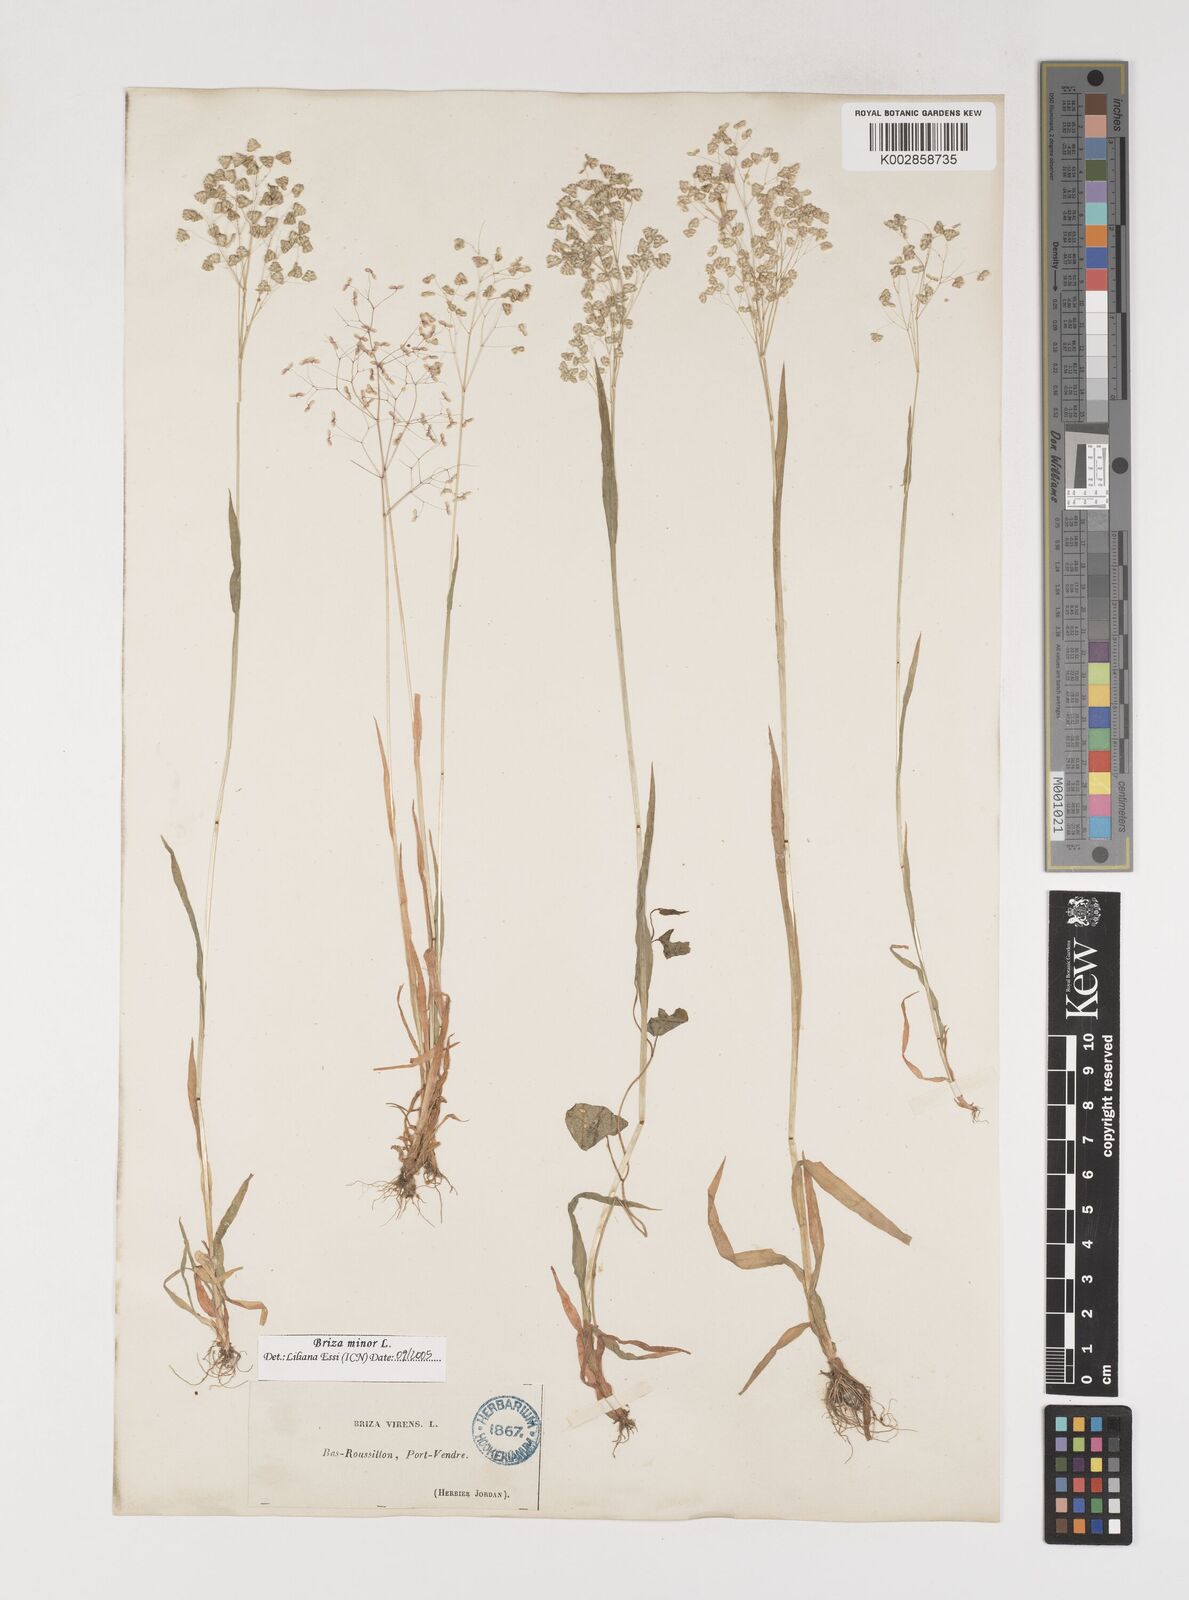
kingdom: Plantae
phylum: Tracheophyta
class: Liliopsida
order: Poales
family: Poaceae
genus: Briza
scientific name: Briza minor
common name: Lesser quaking-grass
